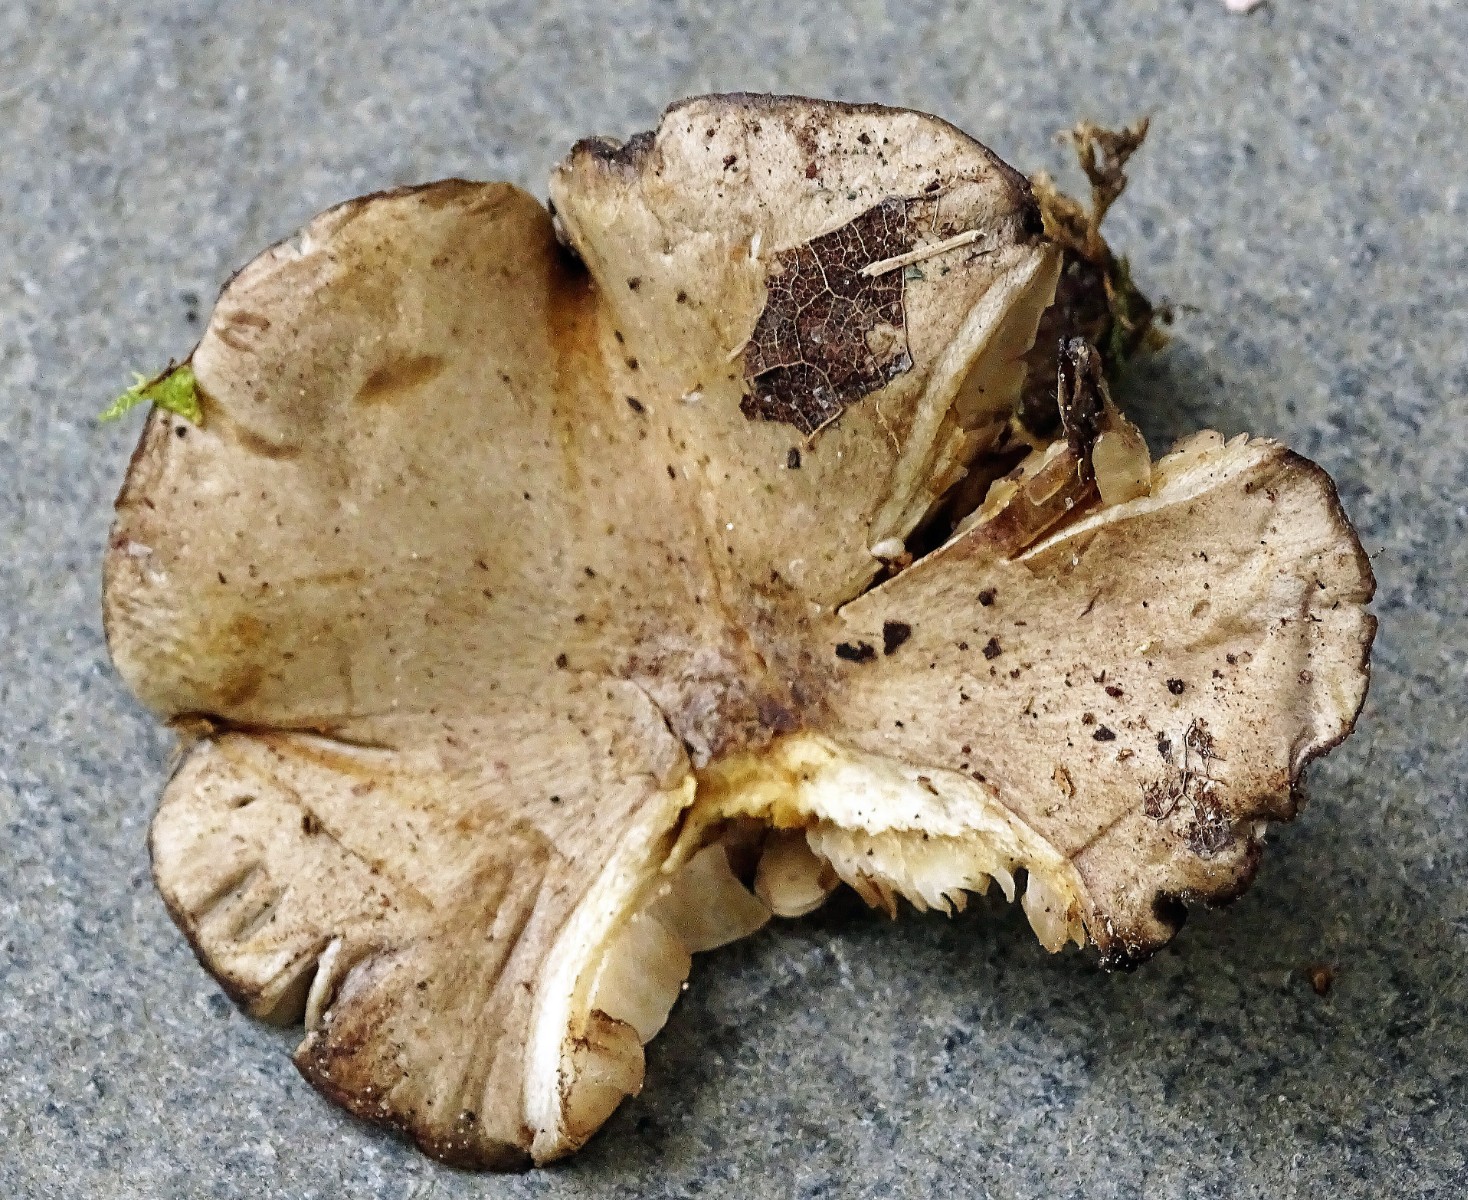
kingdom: Fungi
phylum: Basidiomycota
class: Agaricomycetes
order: Agaricales
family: Tricholomataceae
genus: Melanoleuca
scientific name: Melanoleuca
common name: munkehat
